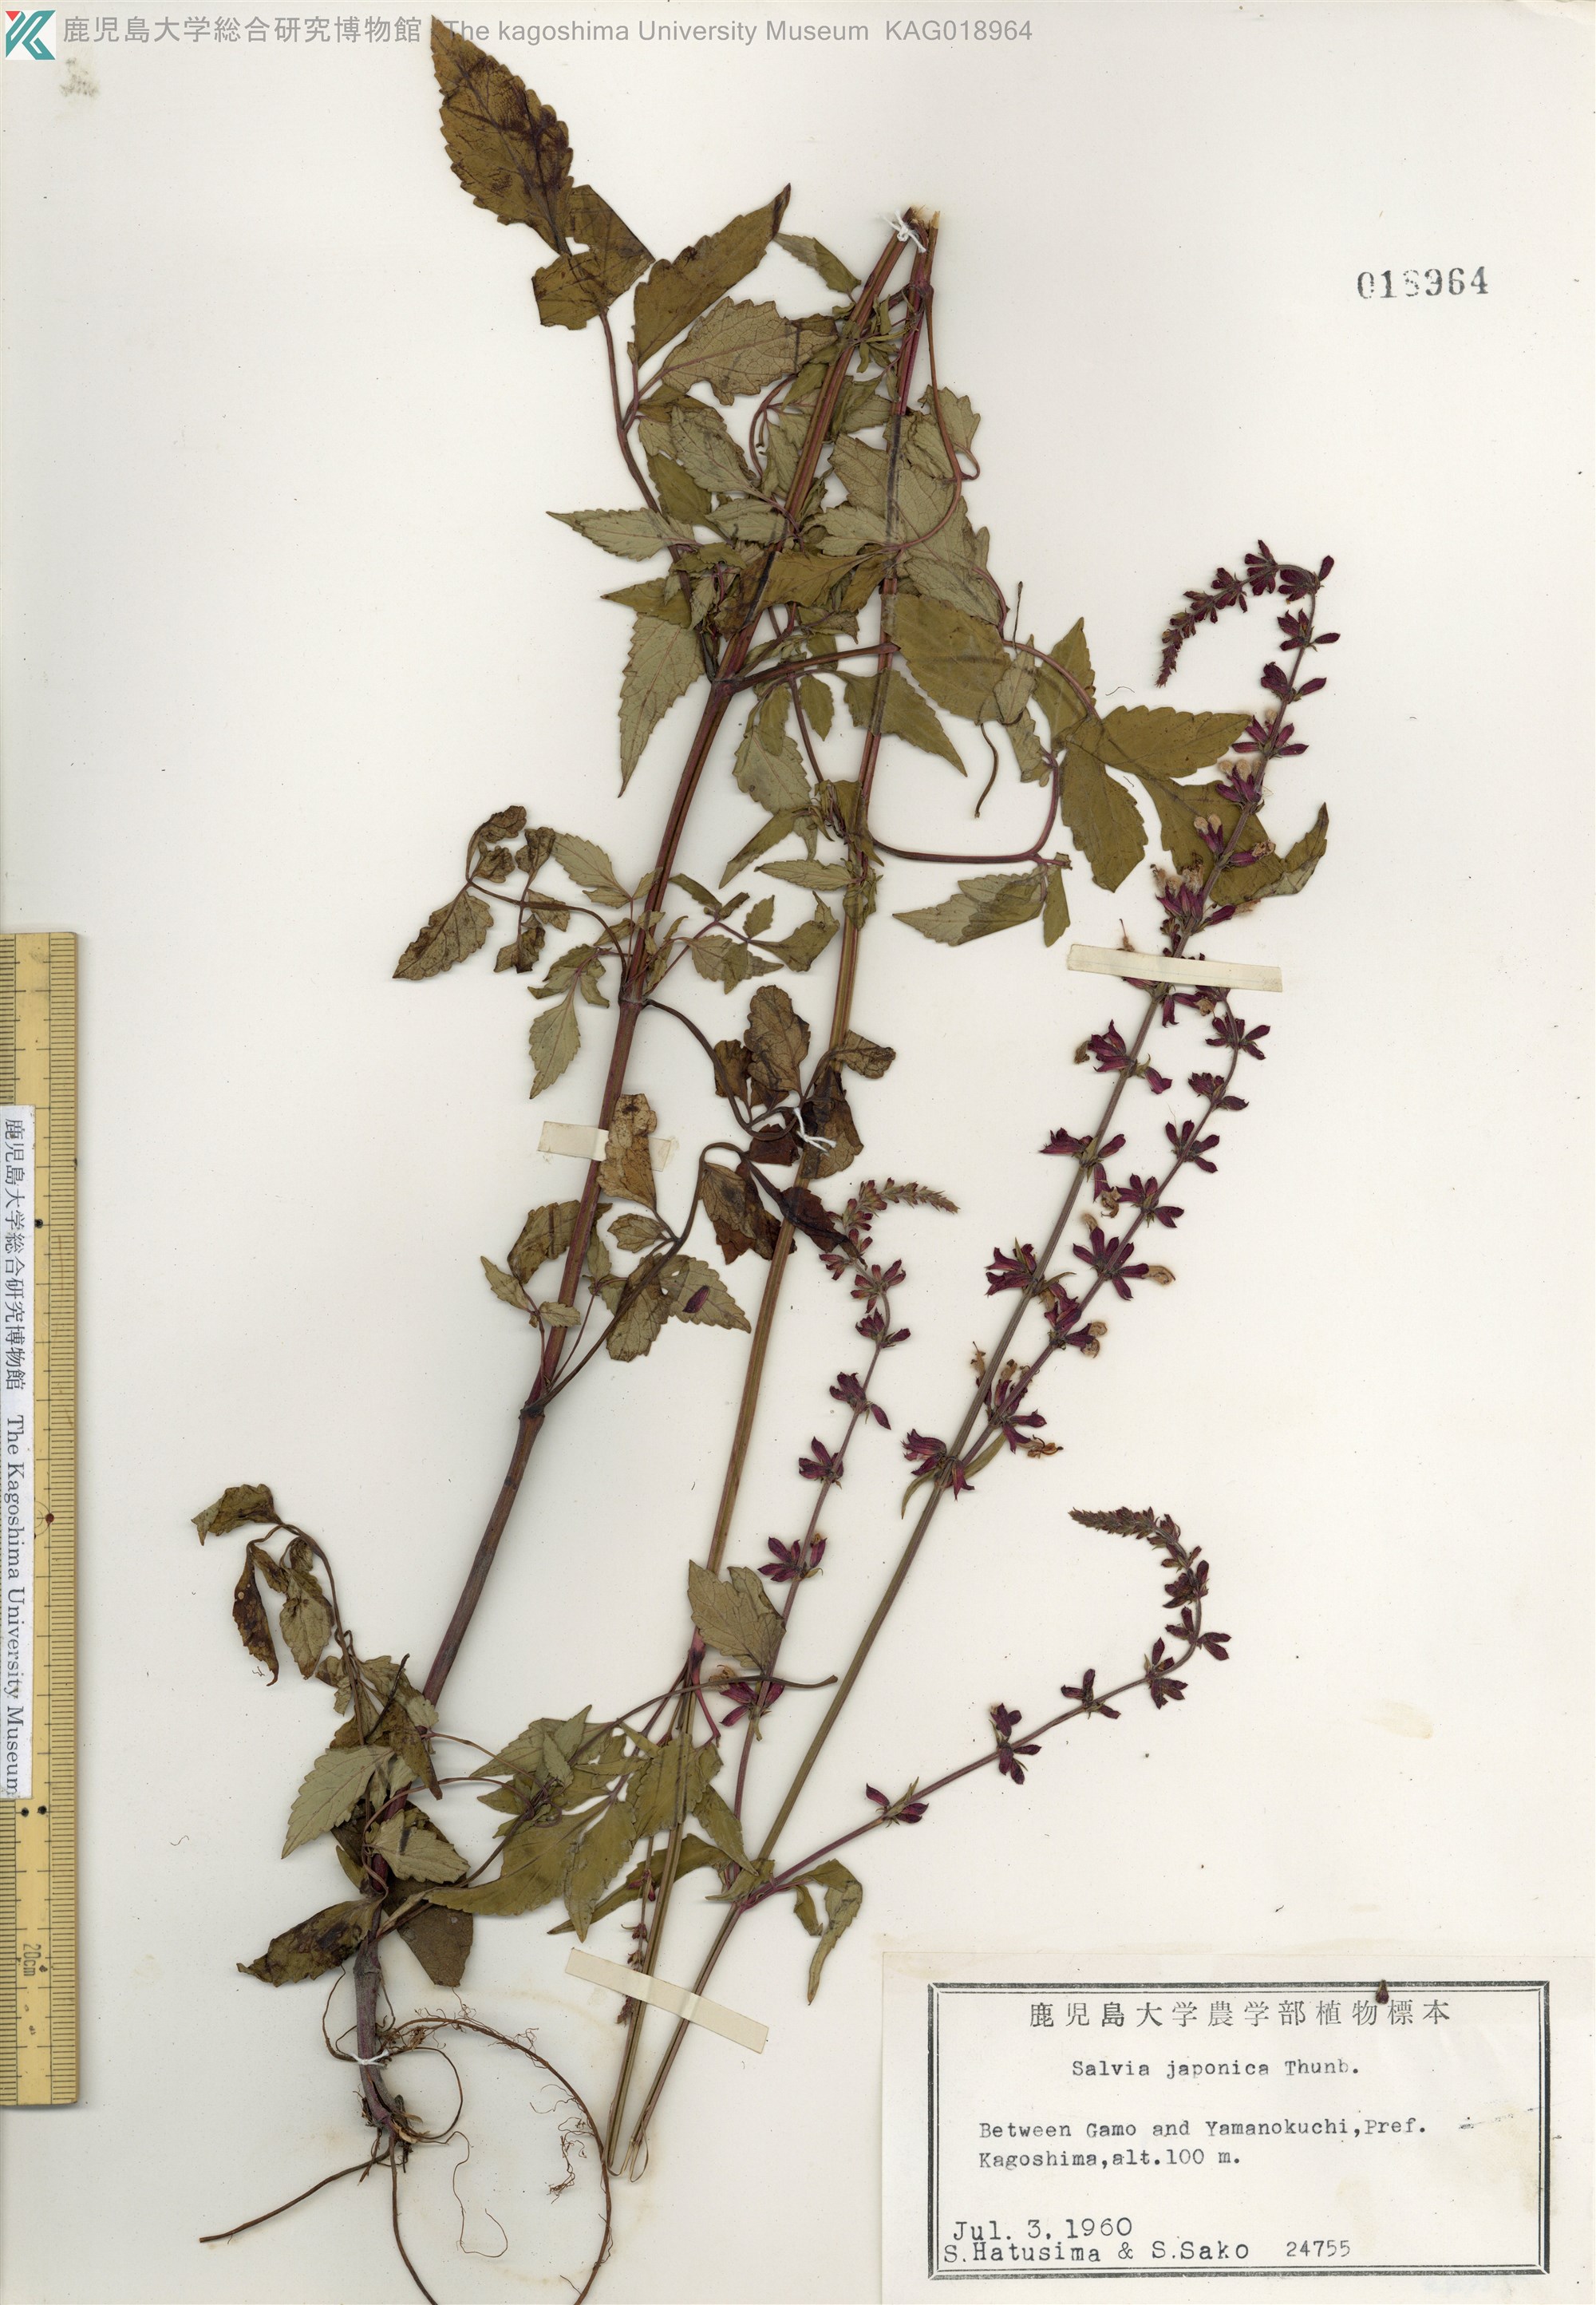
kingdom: Plantae
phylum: Tracheophyta
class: Magnoliopsida
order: Lamiales
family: Lamiaceae
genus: Salvia
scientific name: Salvia japonica
